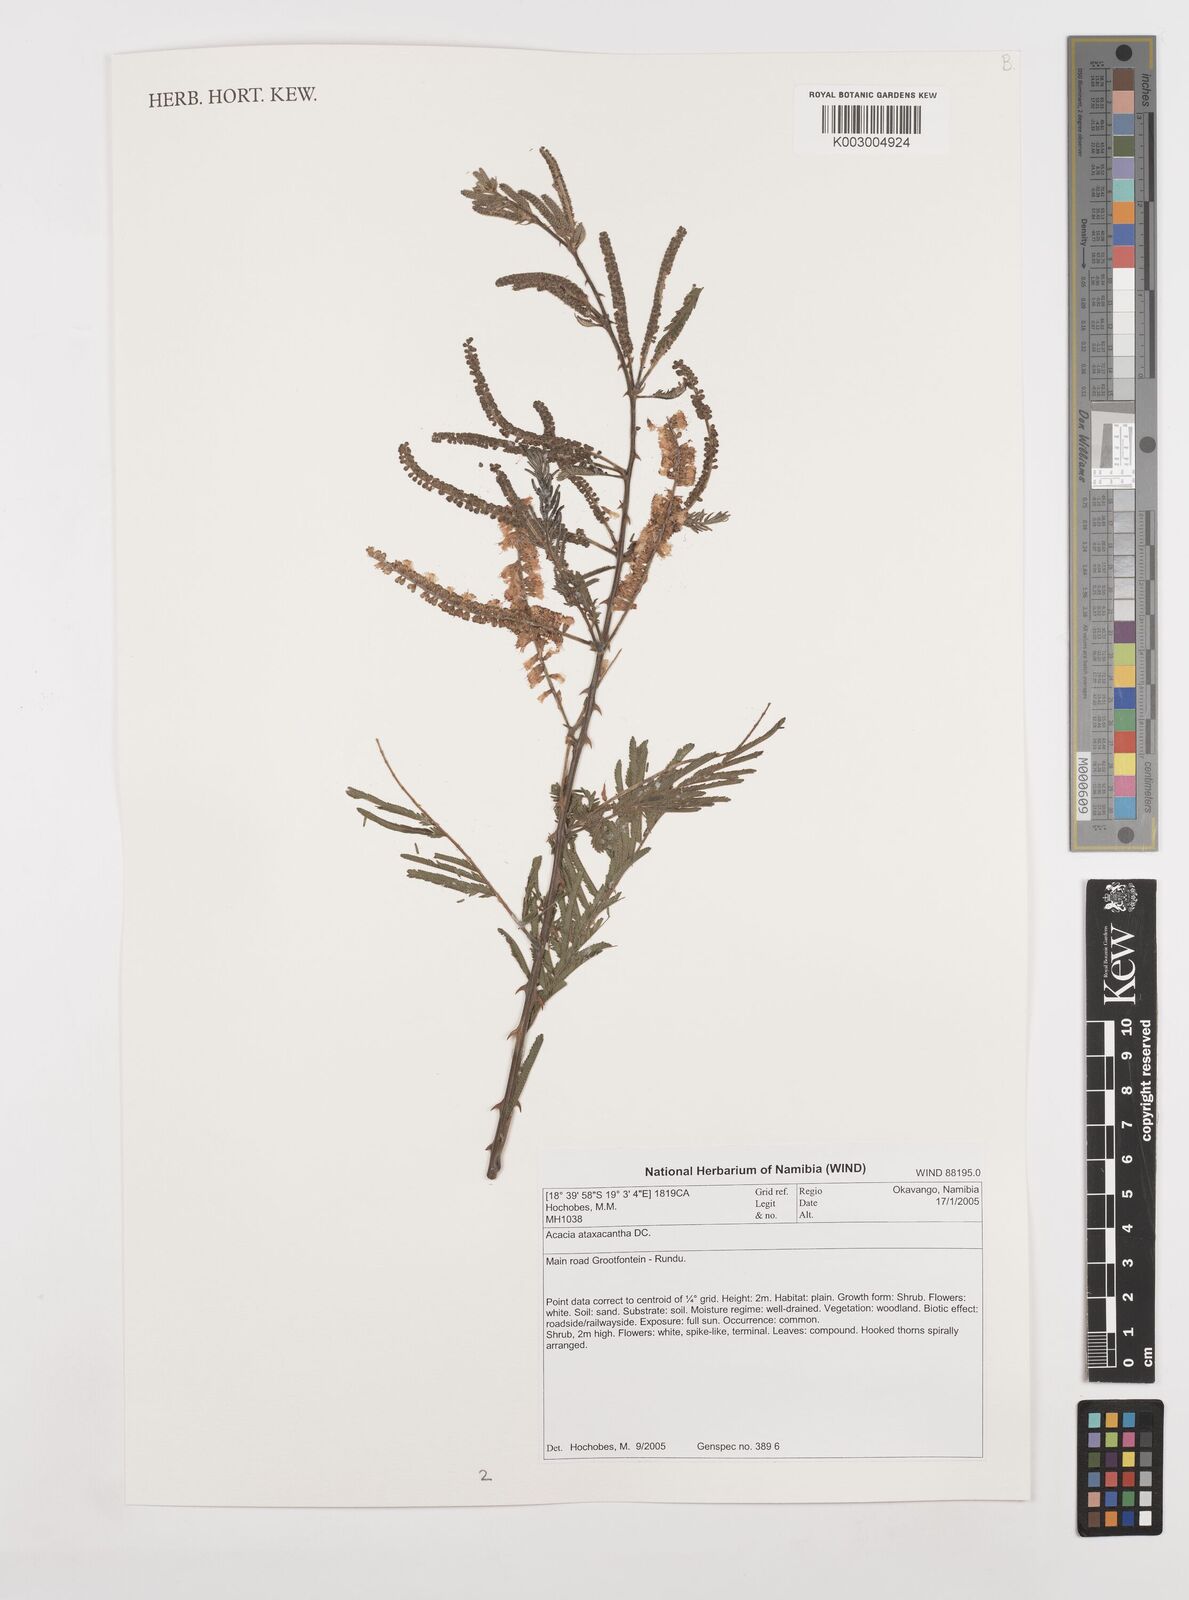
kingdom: Plantae
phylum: Tracheophyta
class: Magnoliopsida
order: Fabales
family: Fabaceae
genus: Senegalia
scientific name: Senegalia ataxacantha
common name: Flame acacia
